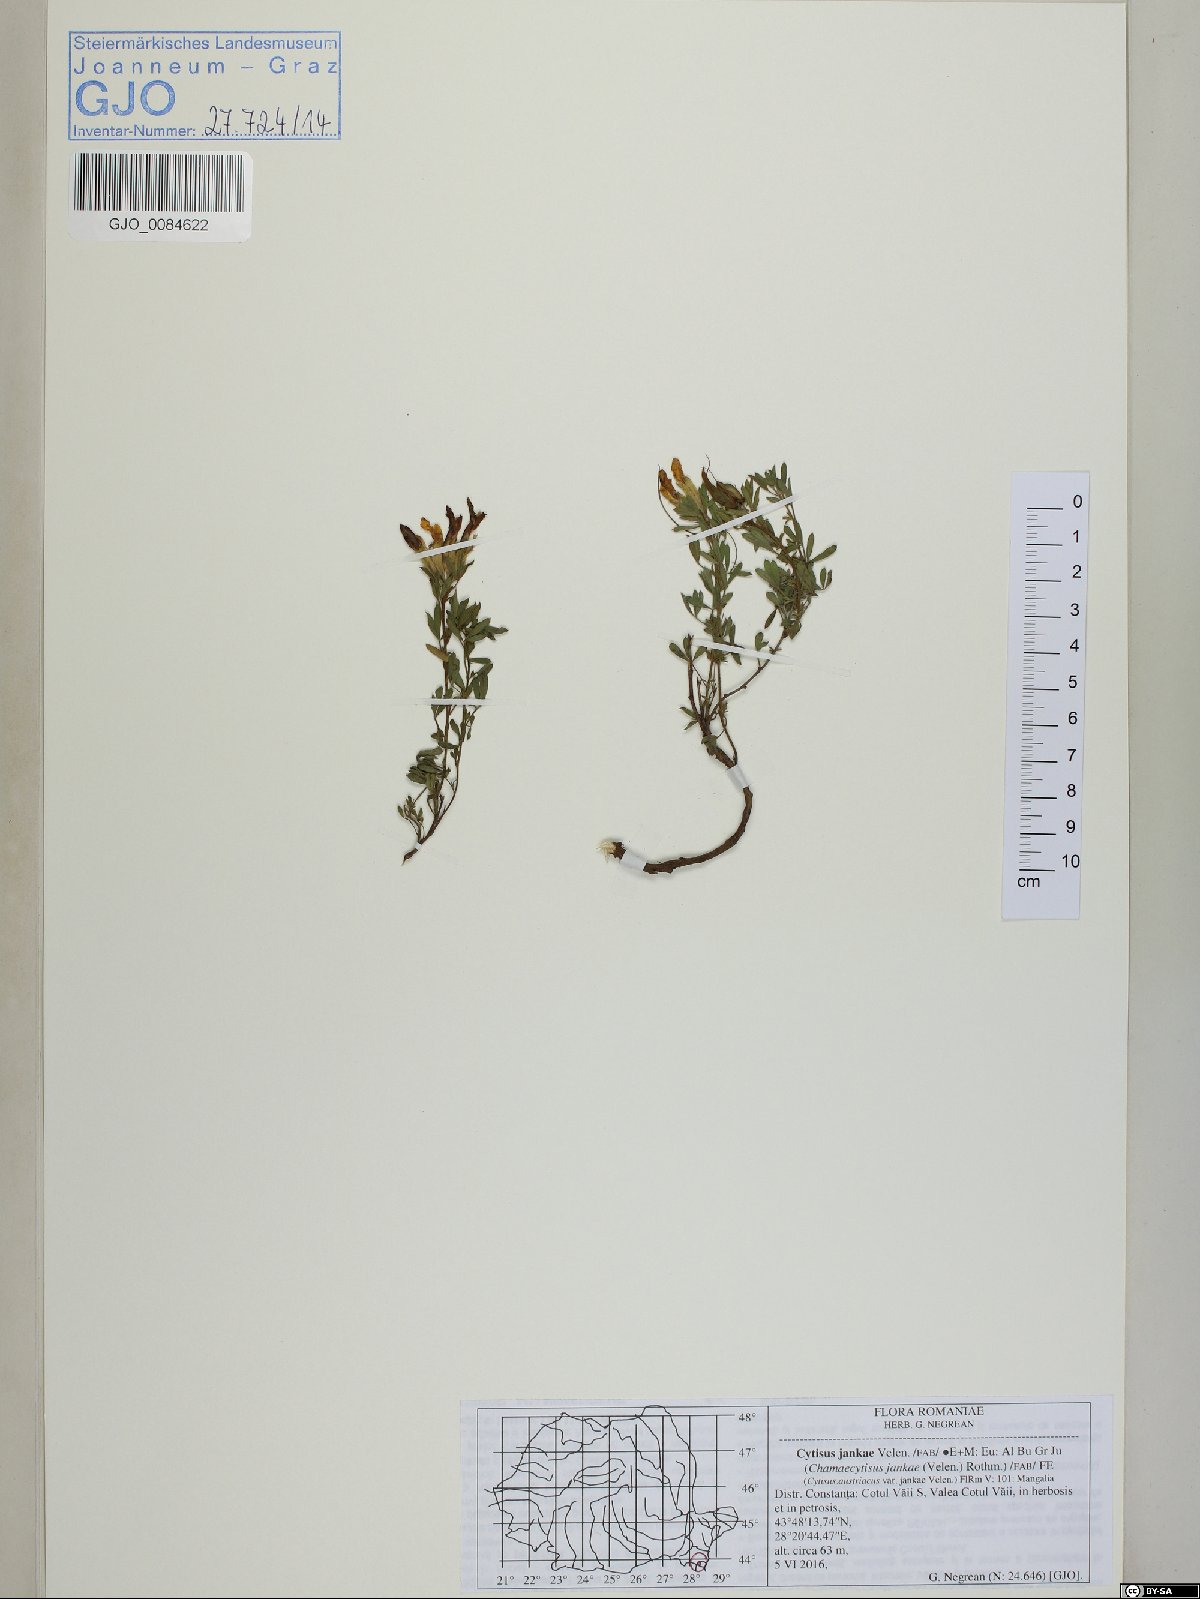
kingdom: Plantae
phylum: Tracheophyta
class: Magnoliopsida
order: Fabales
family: Fabaceae
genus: Chamaecytisus
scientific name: Chamaecytisus jankae
